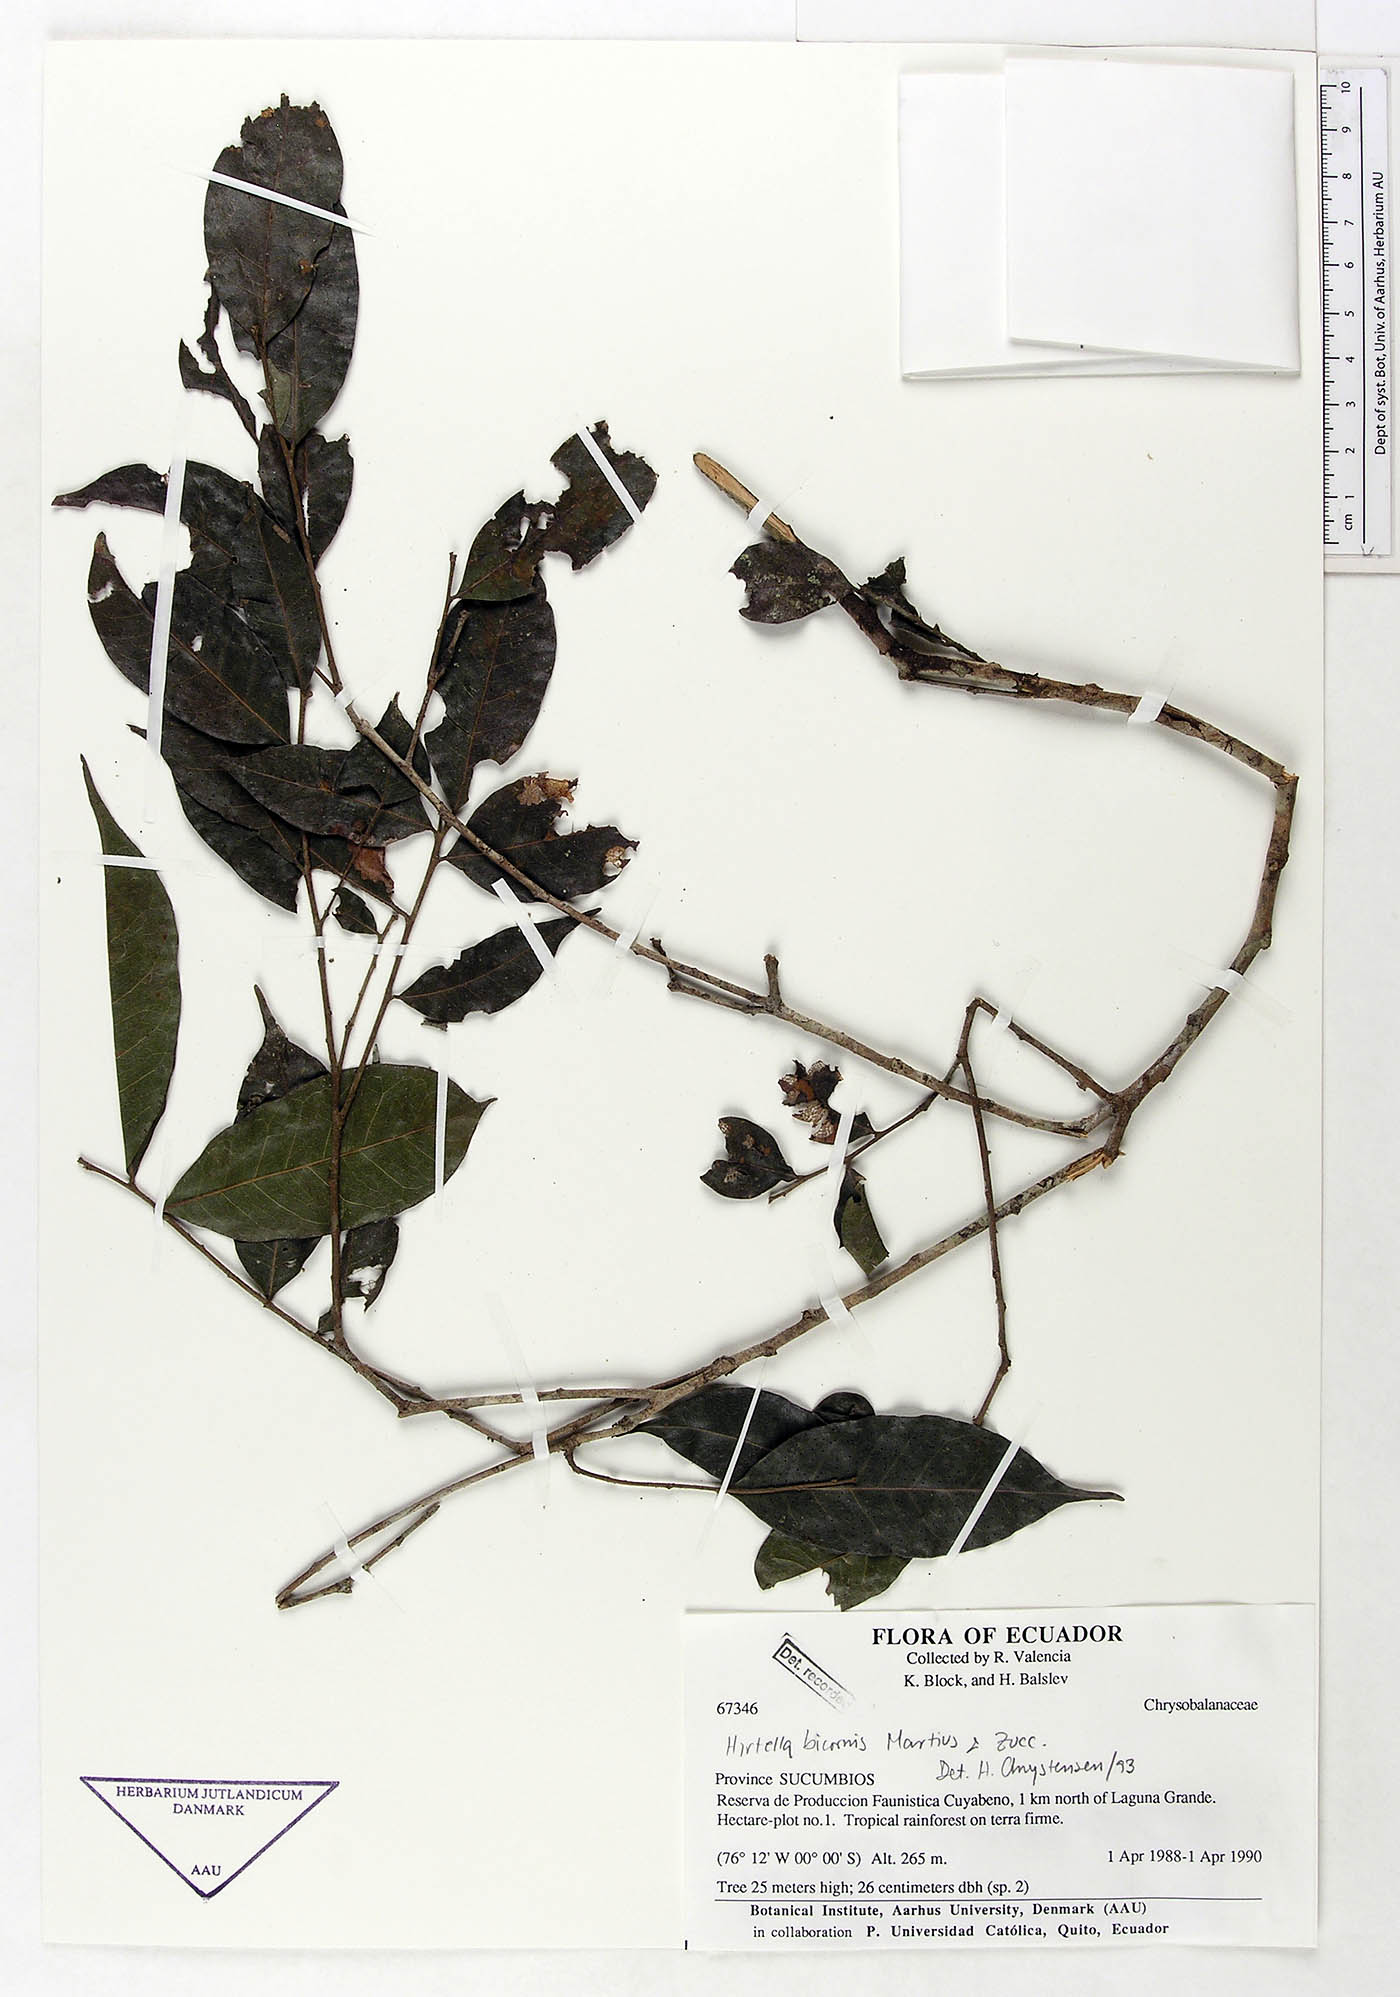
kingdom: Plantae
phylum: Tracheophyta
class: Magnoliopsida
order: Malpighiales
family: Chrysobalanaceae
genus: Hirtella
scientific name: Hirtella bicornis
